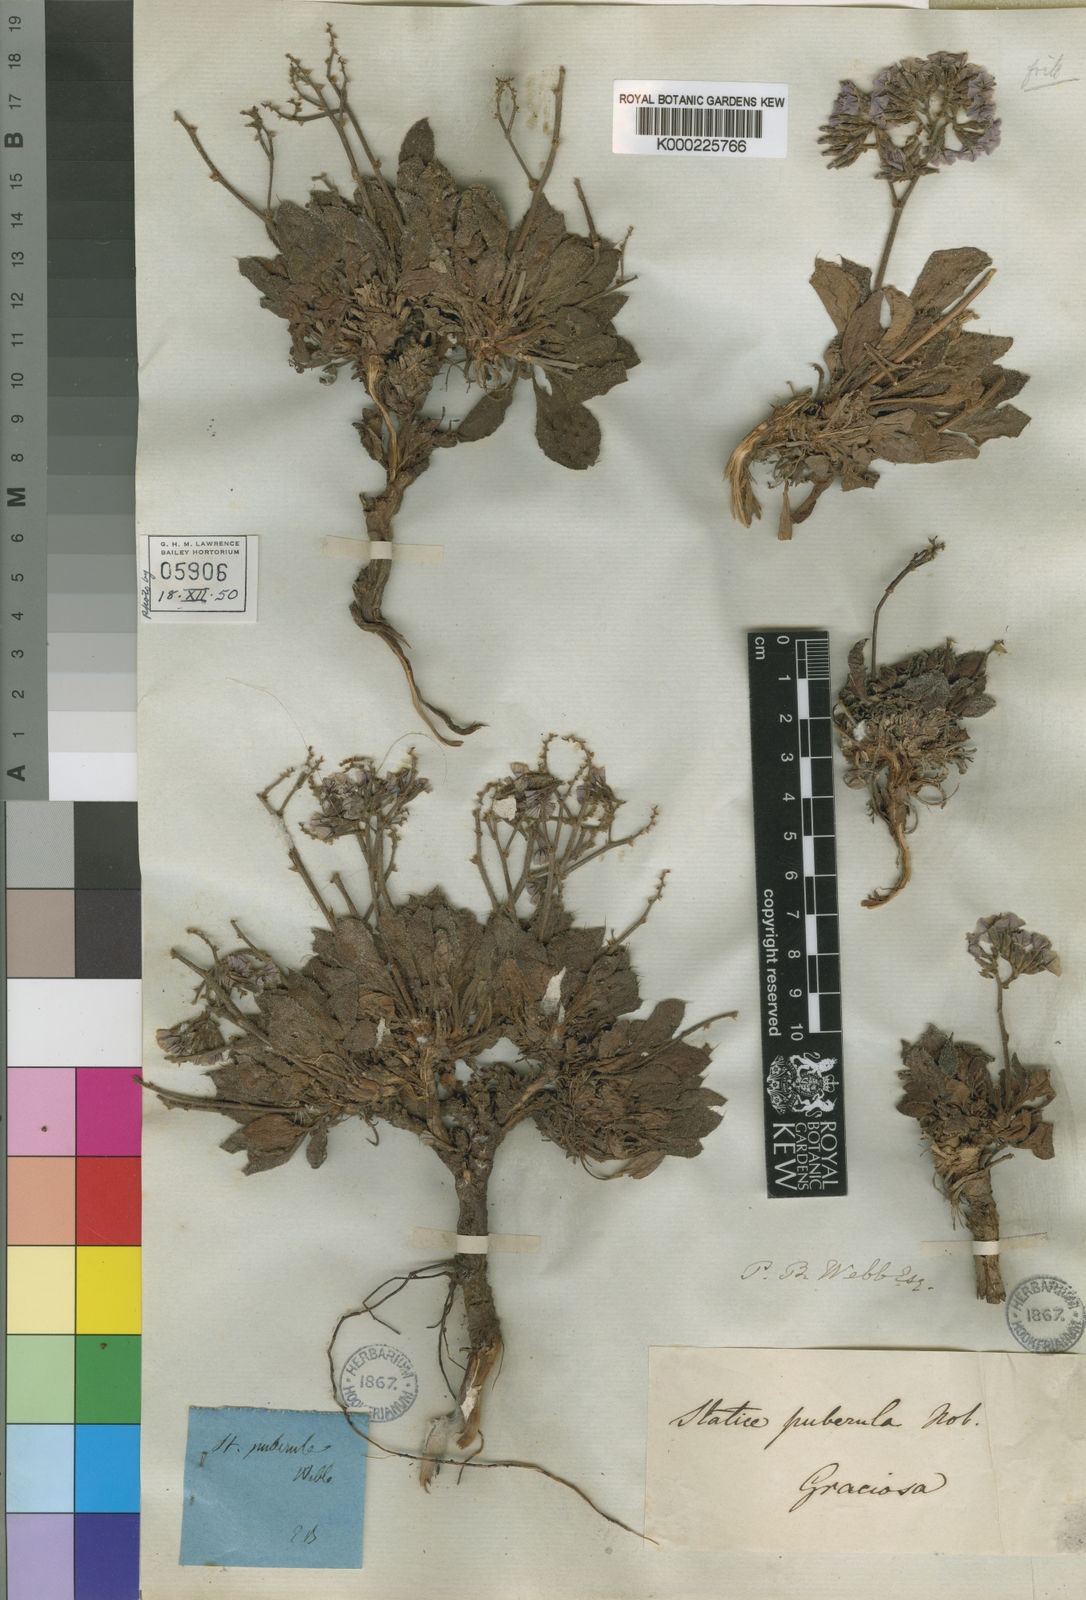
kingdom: Plantae
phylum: Tracheophyta
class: Magnoliopsida
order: Caryophyllales
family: Plumbaginaceae
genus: Limonium
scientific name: Limonium puberulum
